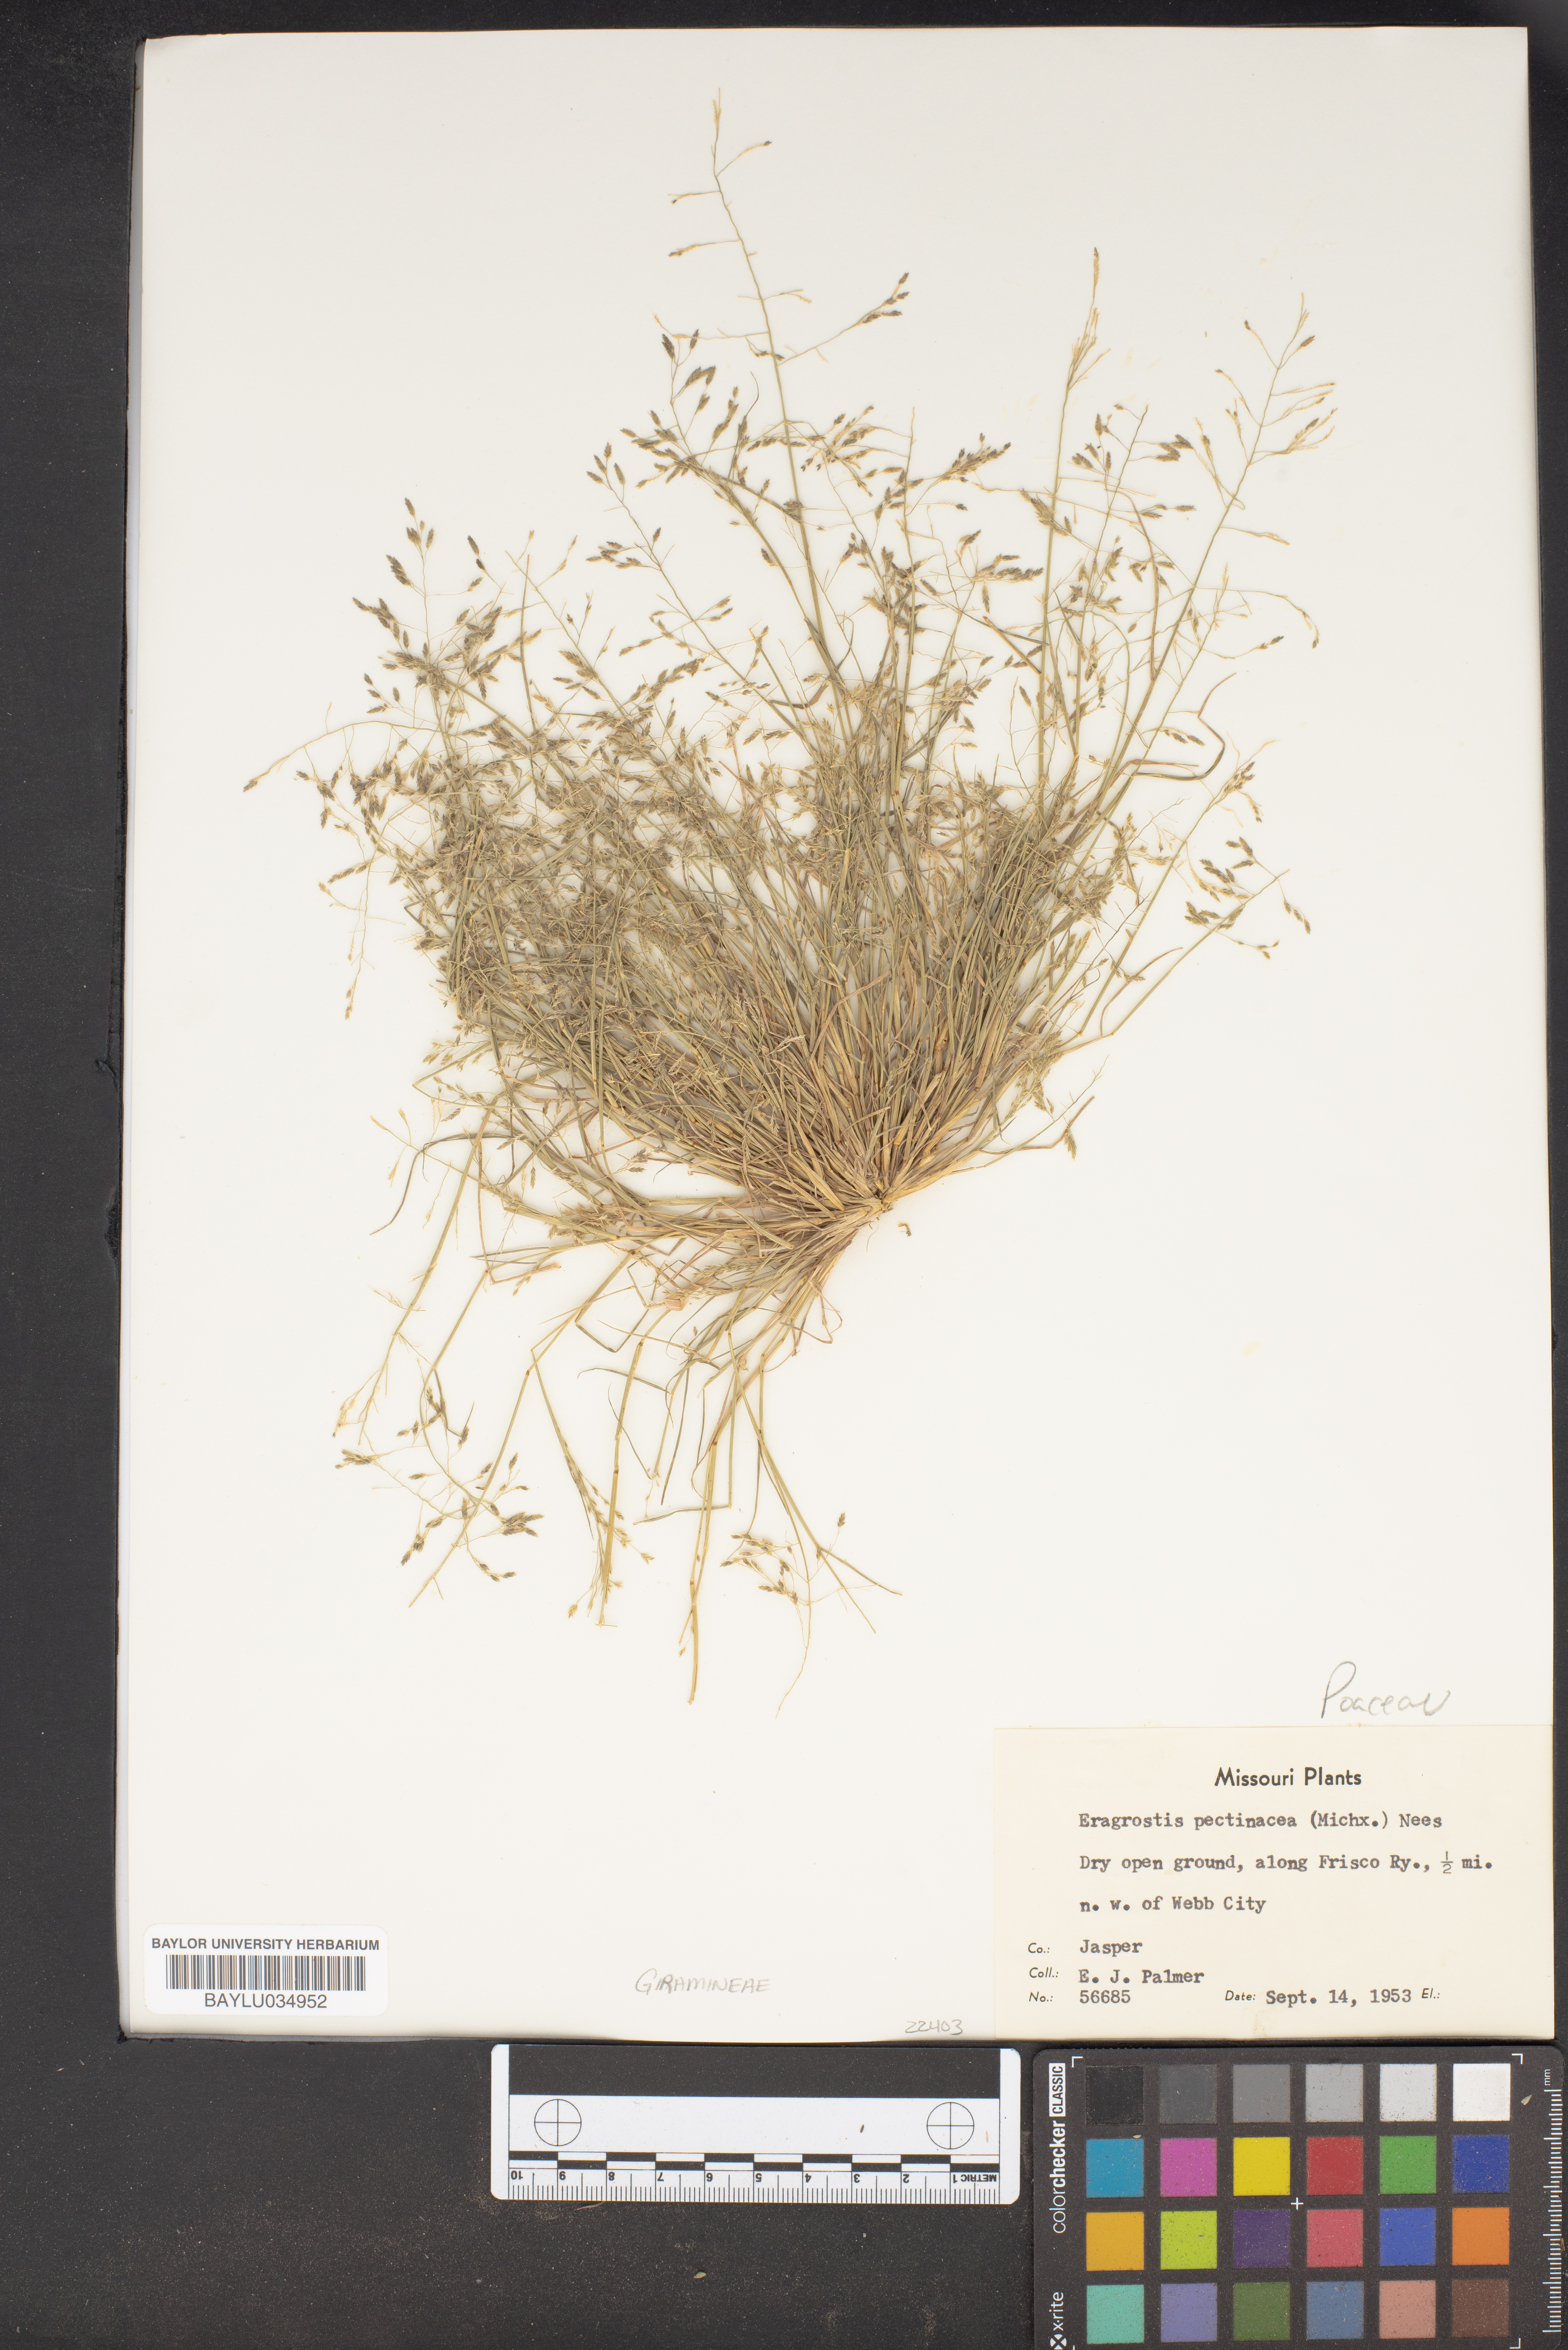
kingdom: Plantae
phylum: Tracheophyta
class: Liliopsida
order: Poales
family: Poaceae
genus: Eragrostis
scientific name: Eragrostis pectinacea
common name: Tufted lovegrass
